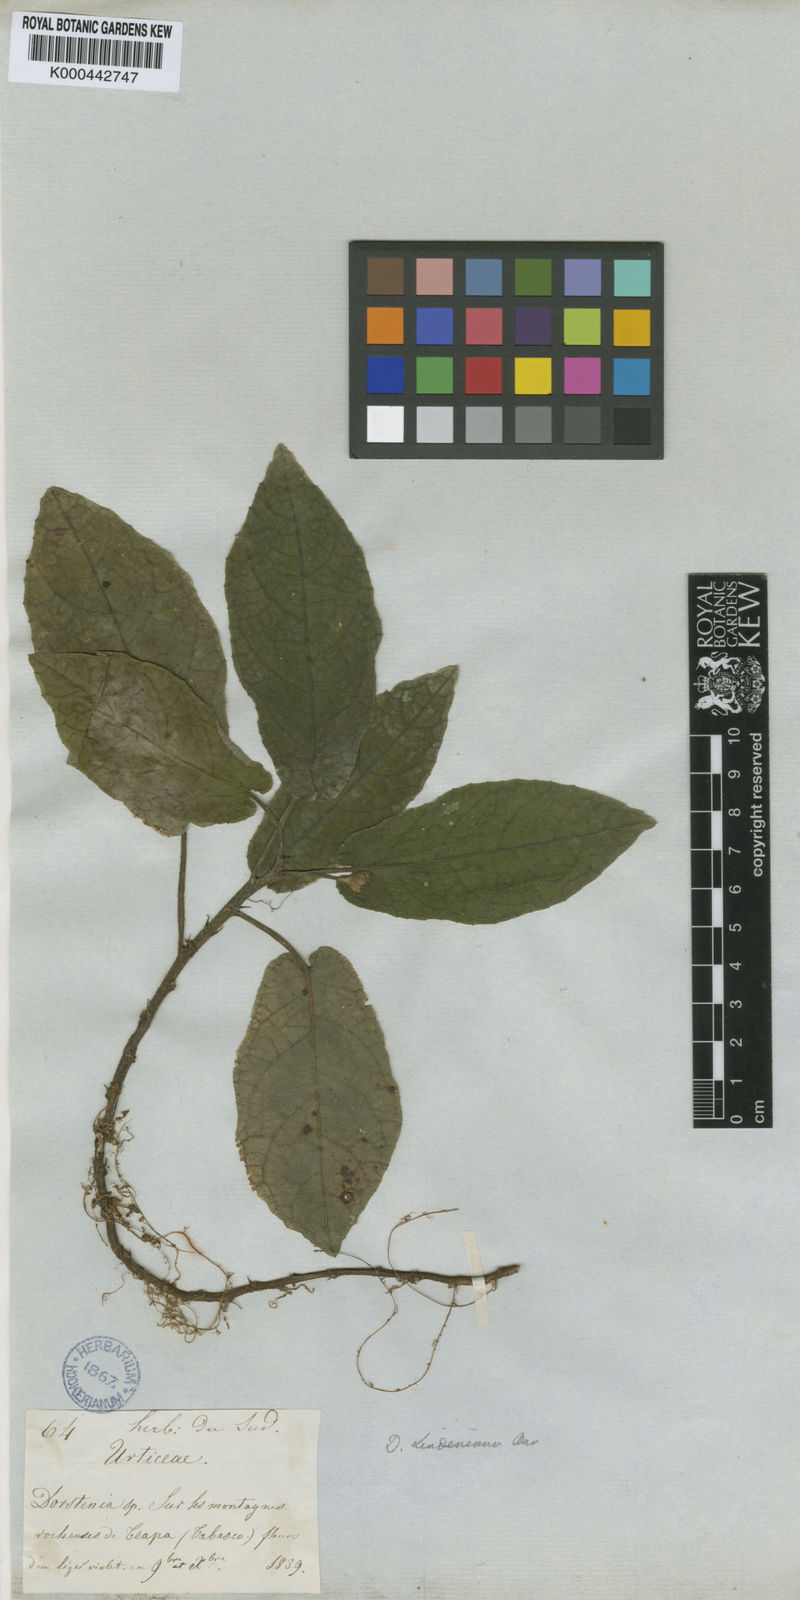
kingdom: Plantae
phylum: Tracheophyta
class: Magnoliopsida
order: Rosales
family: Moraceae
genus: Dorstenia
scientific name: Dorstenia lindeniana
